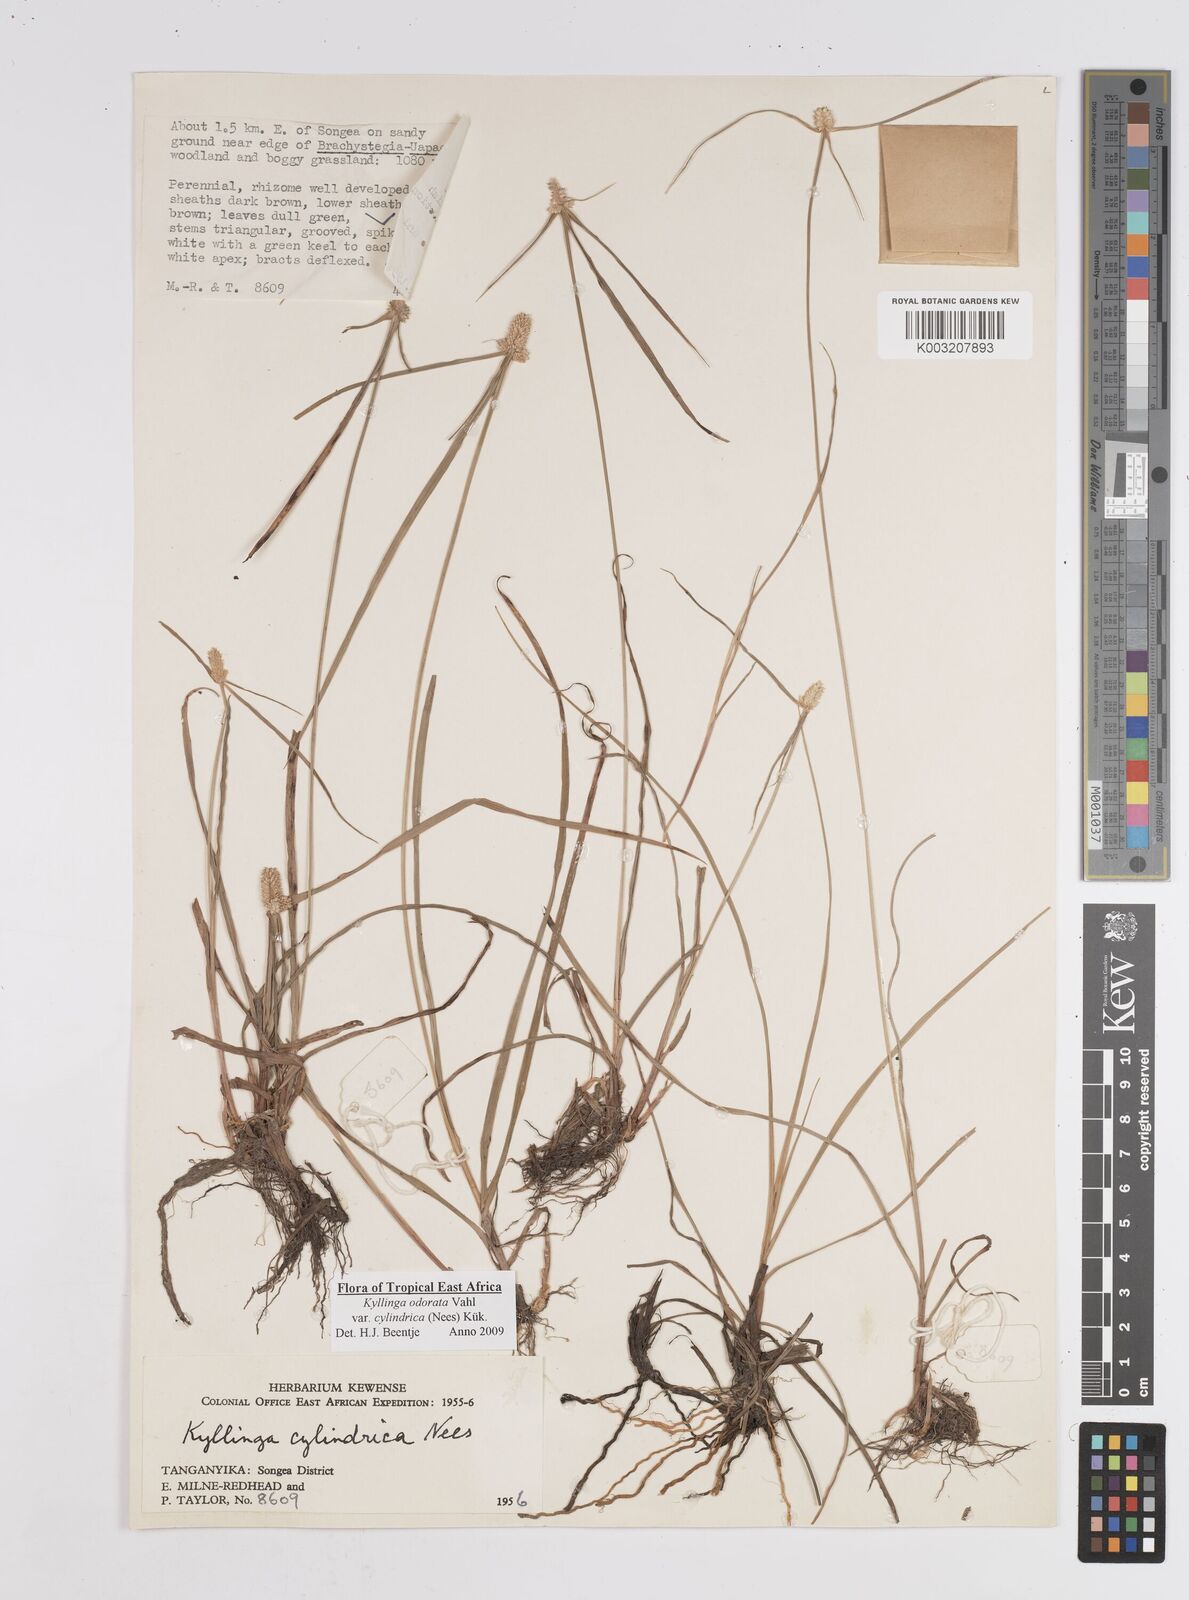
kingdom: Plantae
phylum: Tracheophyta
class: Liliopsida
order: Poales
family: Cyperaceae
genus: Cyperus
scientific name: Cyperus
